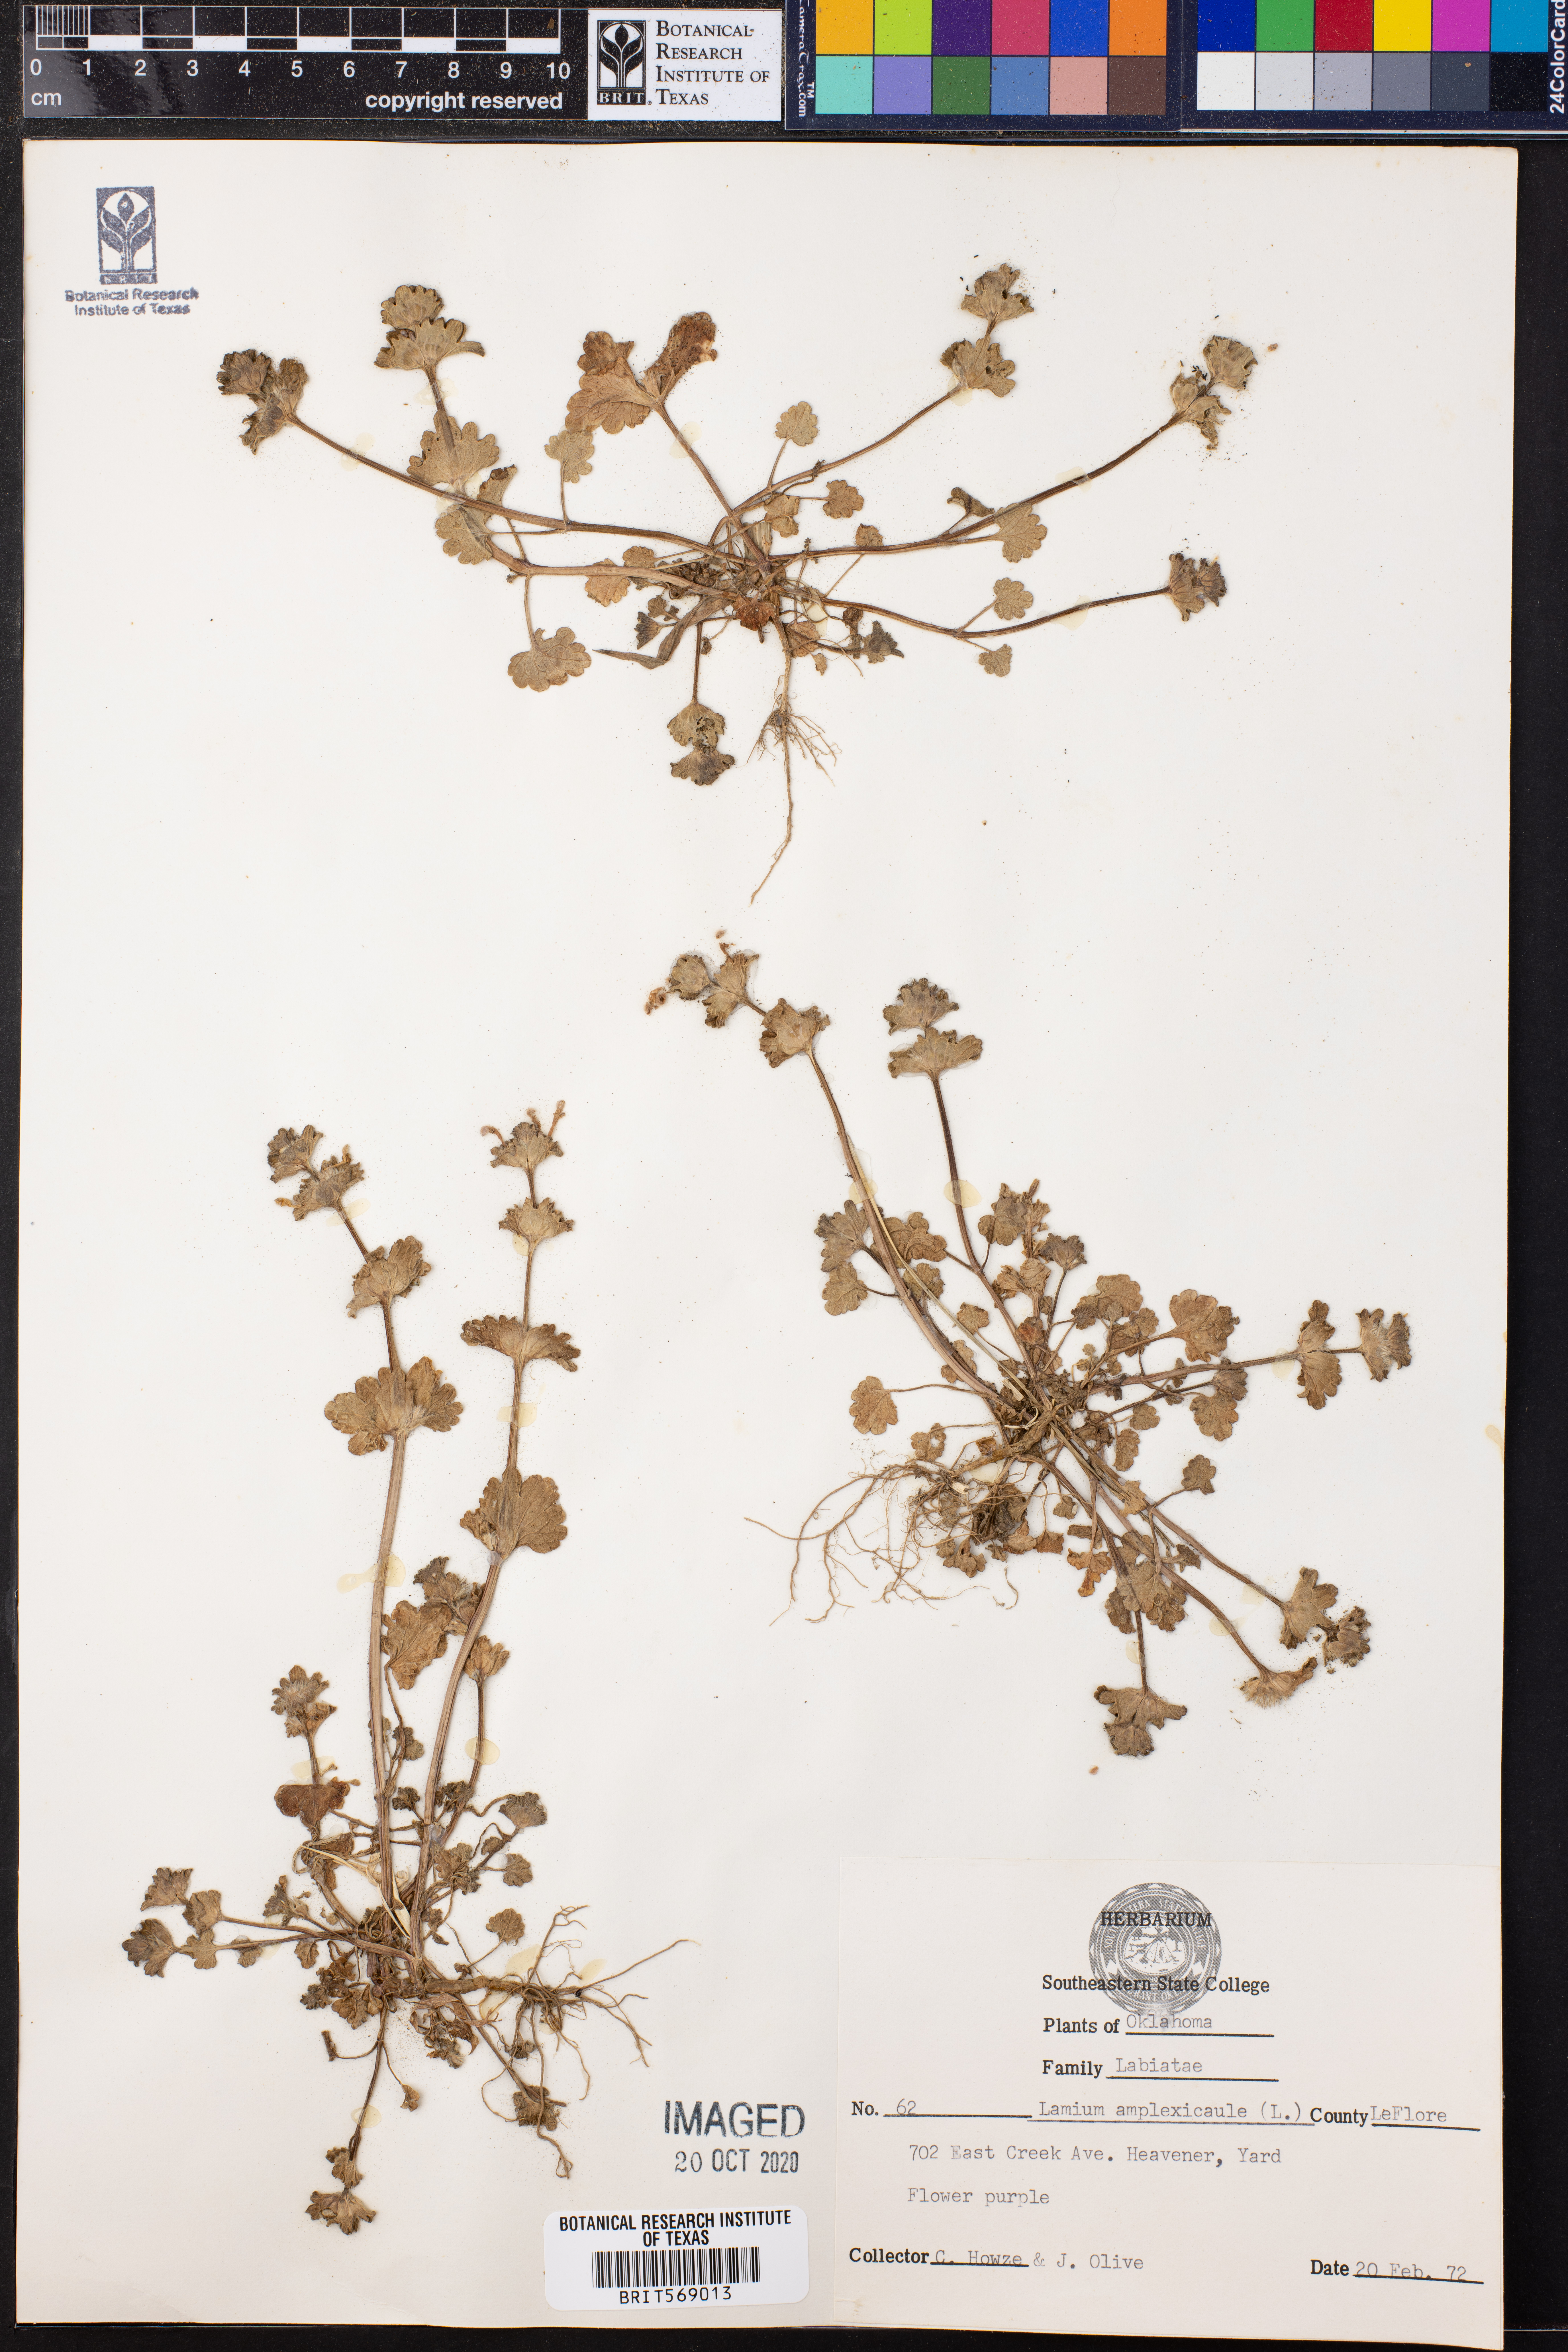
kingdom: Plantae
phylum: Tracheophyta
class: Magnoliopsida
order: Lamiales
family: Lamiaceae
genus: Lamium
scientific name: Lamium amplexicaule
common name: Henbit dead-nettle
